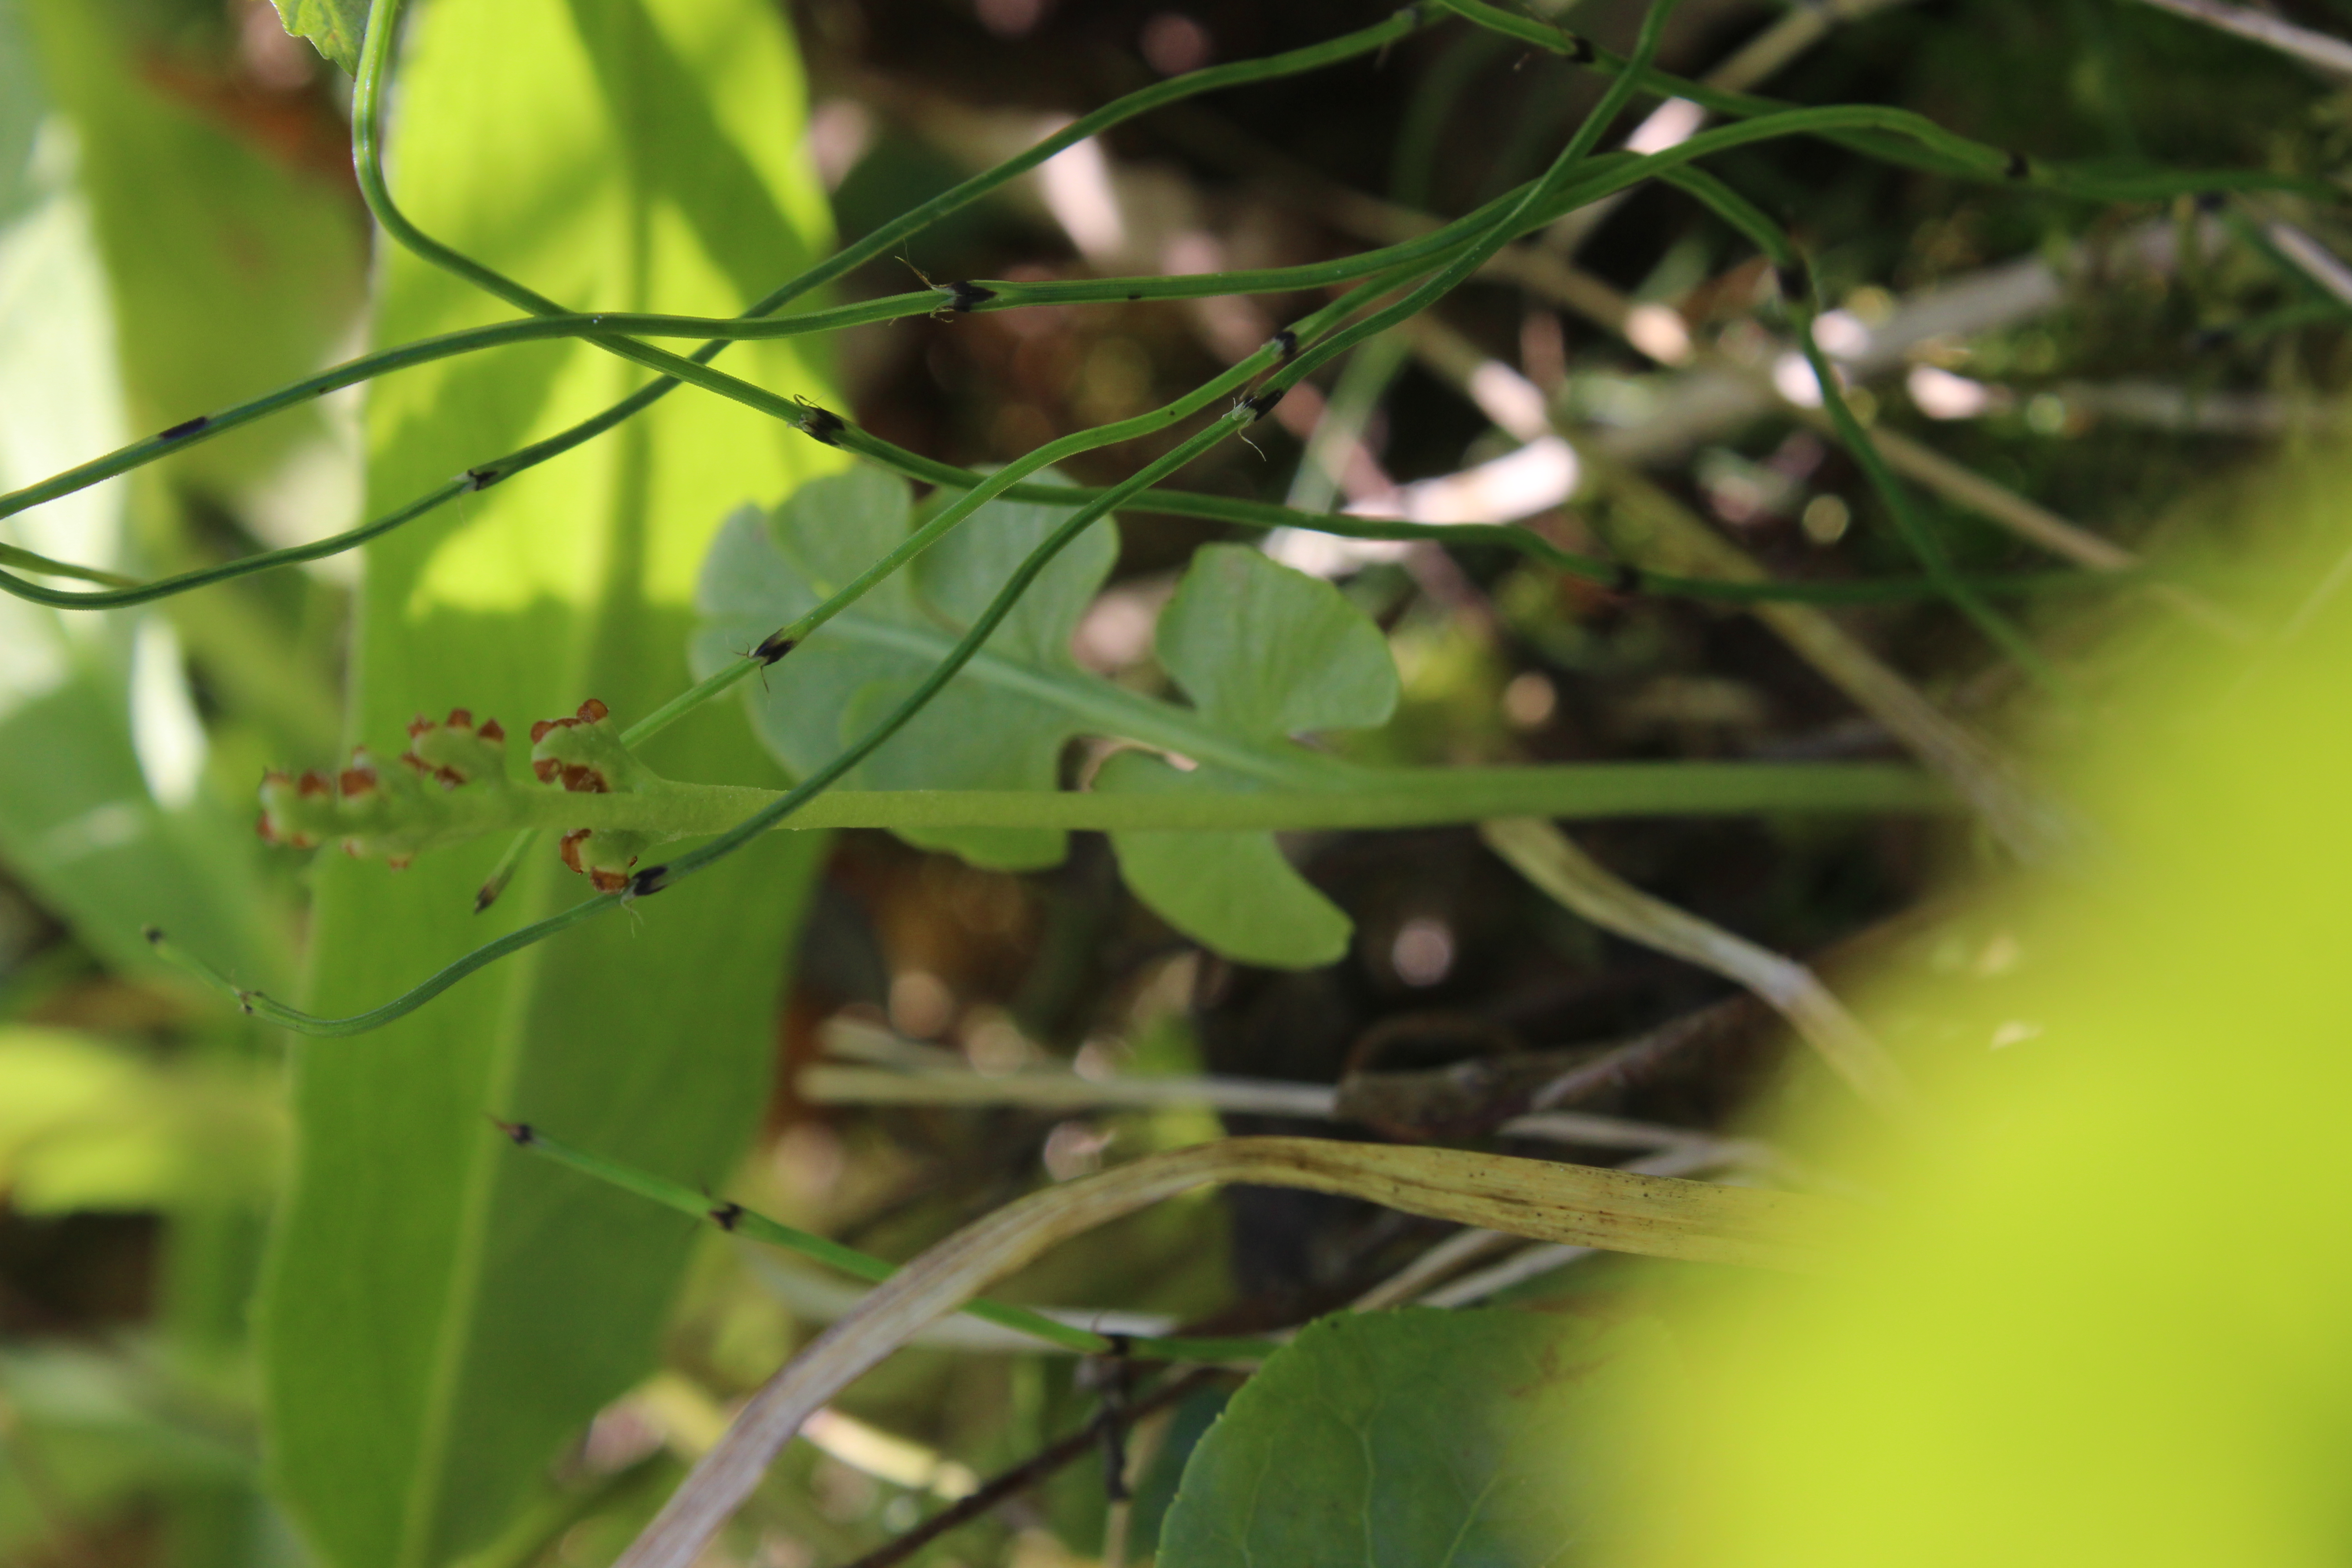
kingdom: Plantae
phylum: Tracheophyta
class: Polypodiopsida
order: Ophioglossales
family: Ophioglossaceae
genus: Botrychium
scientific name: Botrychium lunaria
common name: Moonwort
